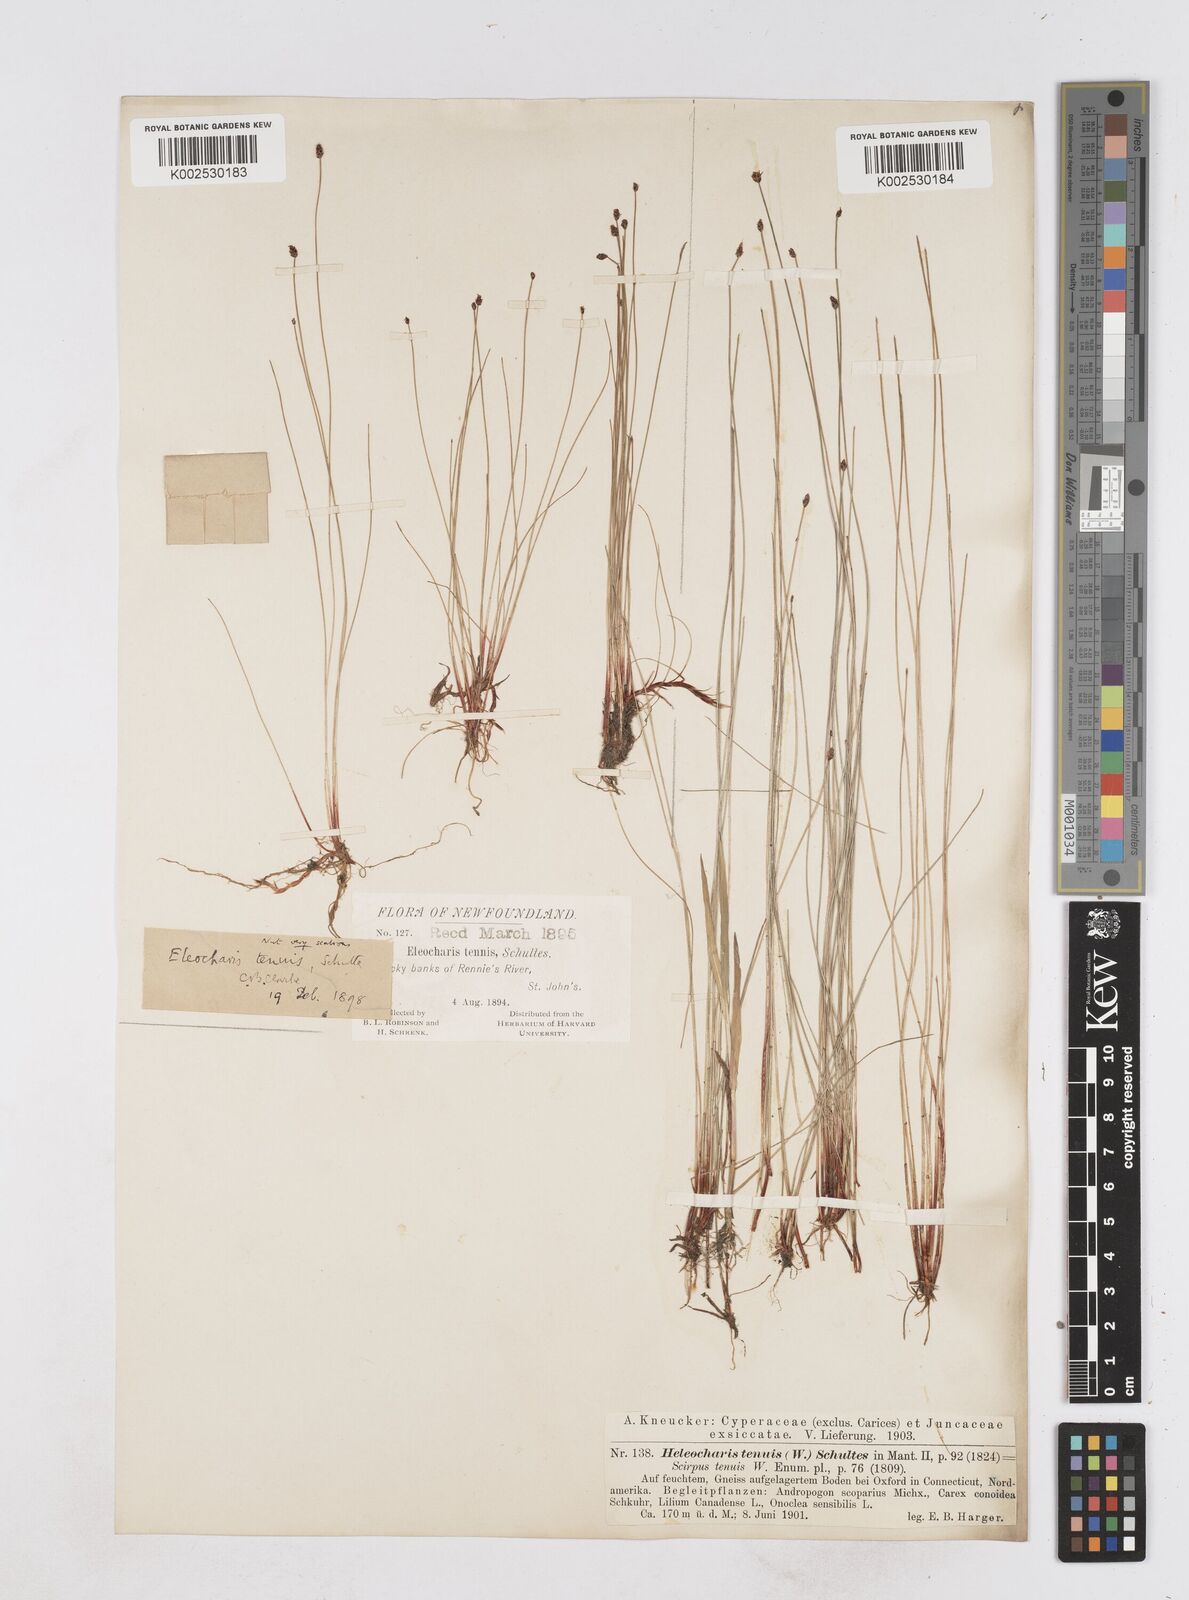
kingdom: Plantae
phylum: Tracheophyta
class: Liliopsida
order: Poales
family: Cyperaceae
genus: Eleocharis
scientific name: Eleocharis tenuis
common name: Dog's hair
